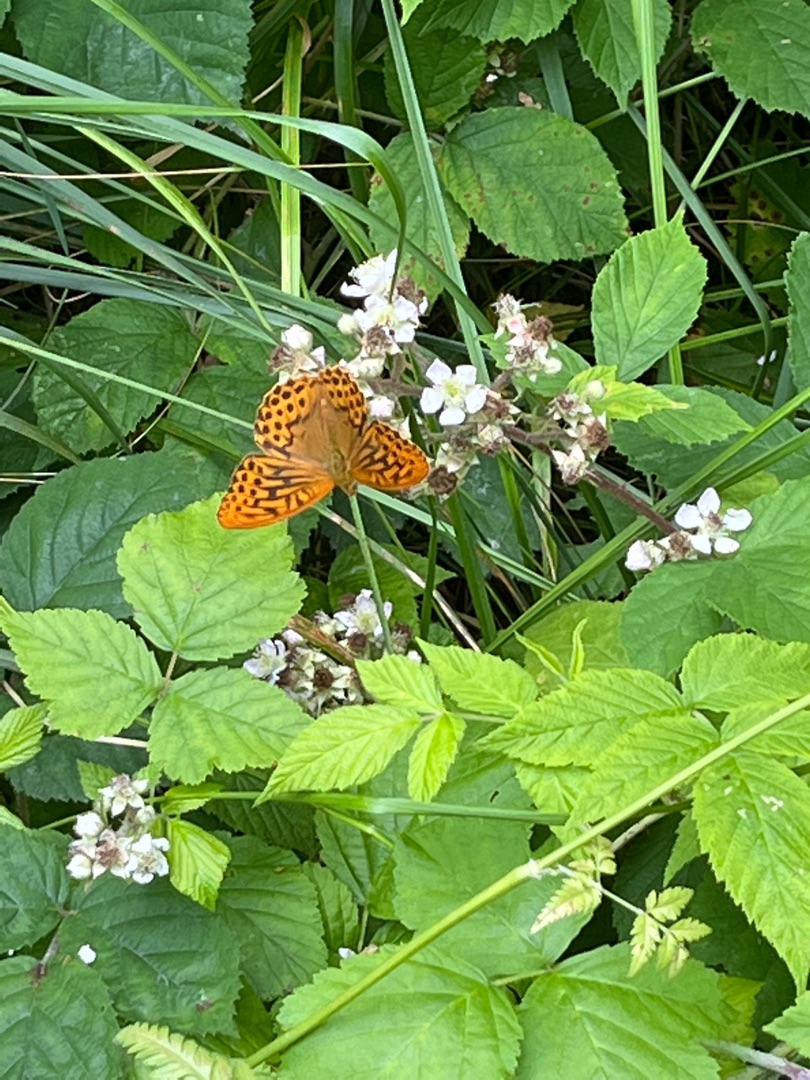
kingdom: Animalia
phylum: Arthropoda
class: Insecta
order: Lepidoptera
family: Nymphalidae
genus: Argynnis
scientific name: Argynnis paphia
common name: Kejserkåbe
